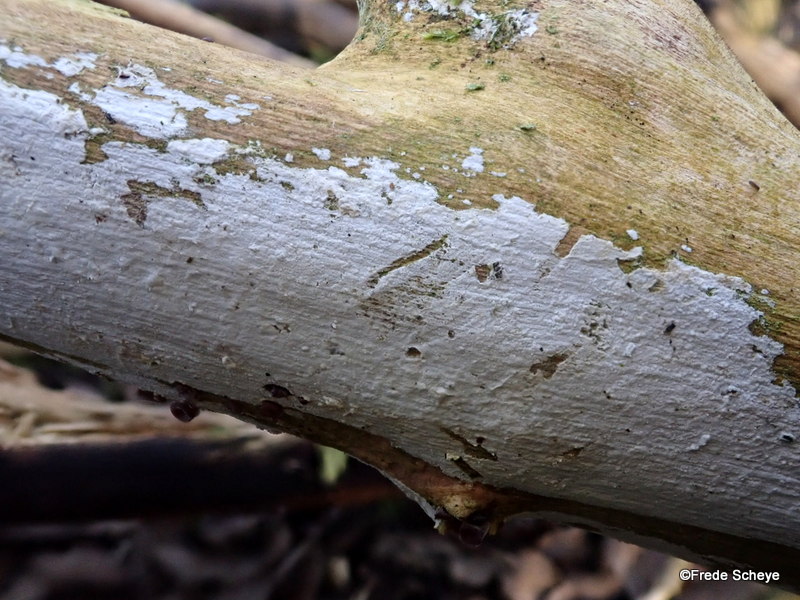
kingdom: Fungi
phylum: Basidiomycota
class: Agaricomycetes
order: Corticiales
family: Corticiaceae
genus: Lyomyces
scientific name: Lyomyces sambuci
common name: almindelig hyldehinde
